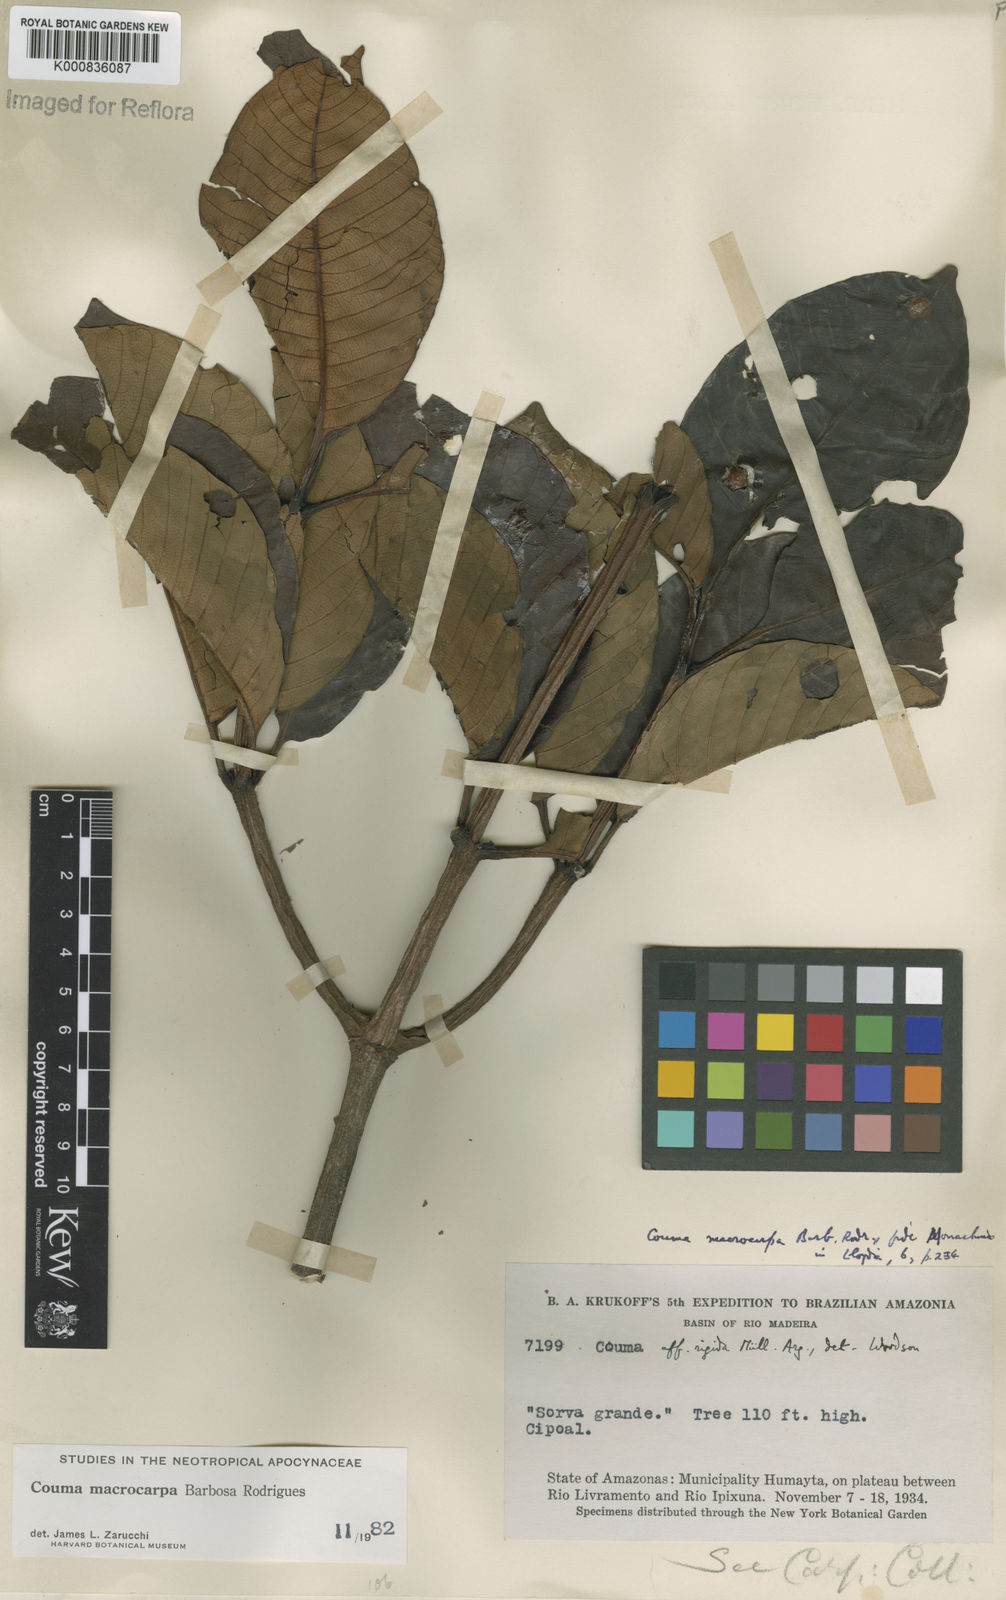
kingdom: Plantae
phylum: Tracheophyta
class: Magnoliopsida
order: Gentianales
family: Apocynaceae
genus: Couma
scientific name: Couma macrocarpa
